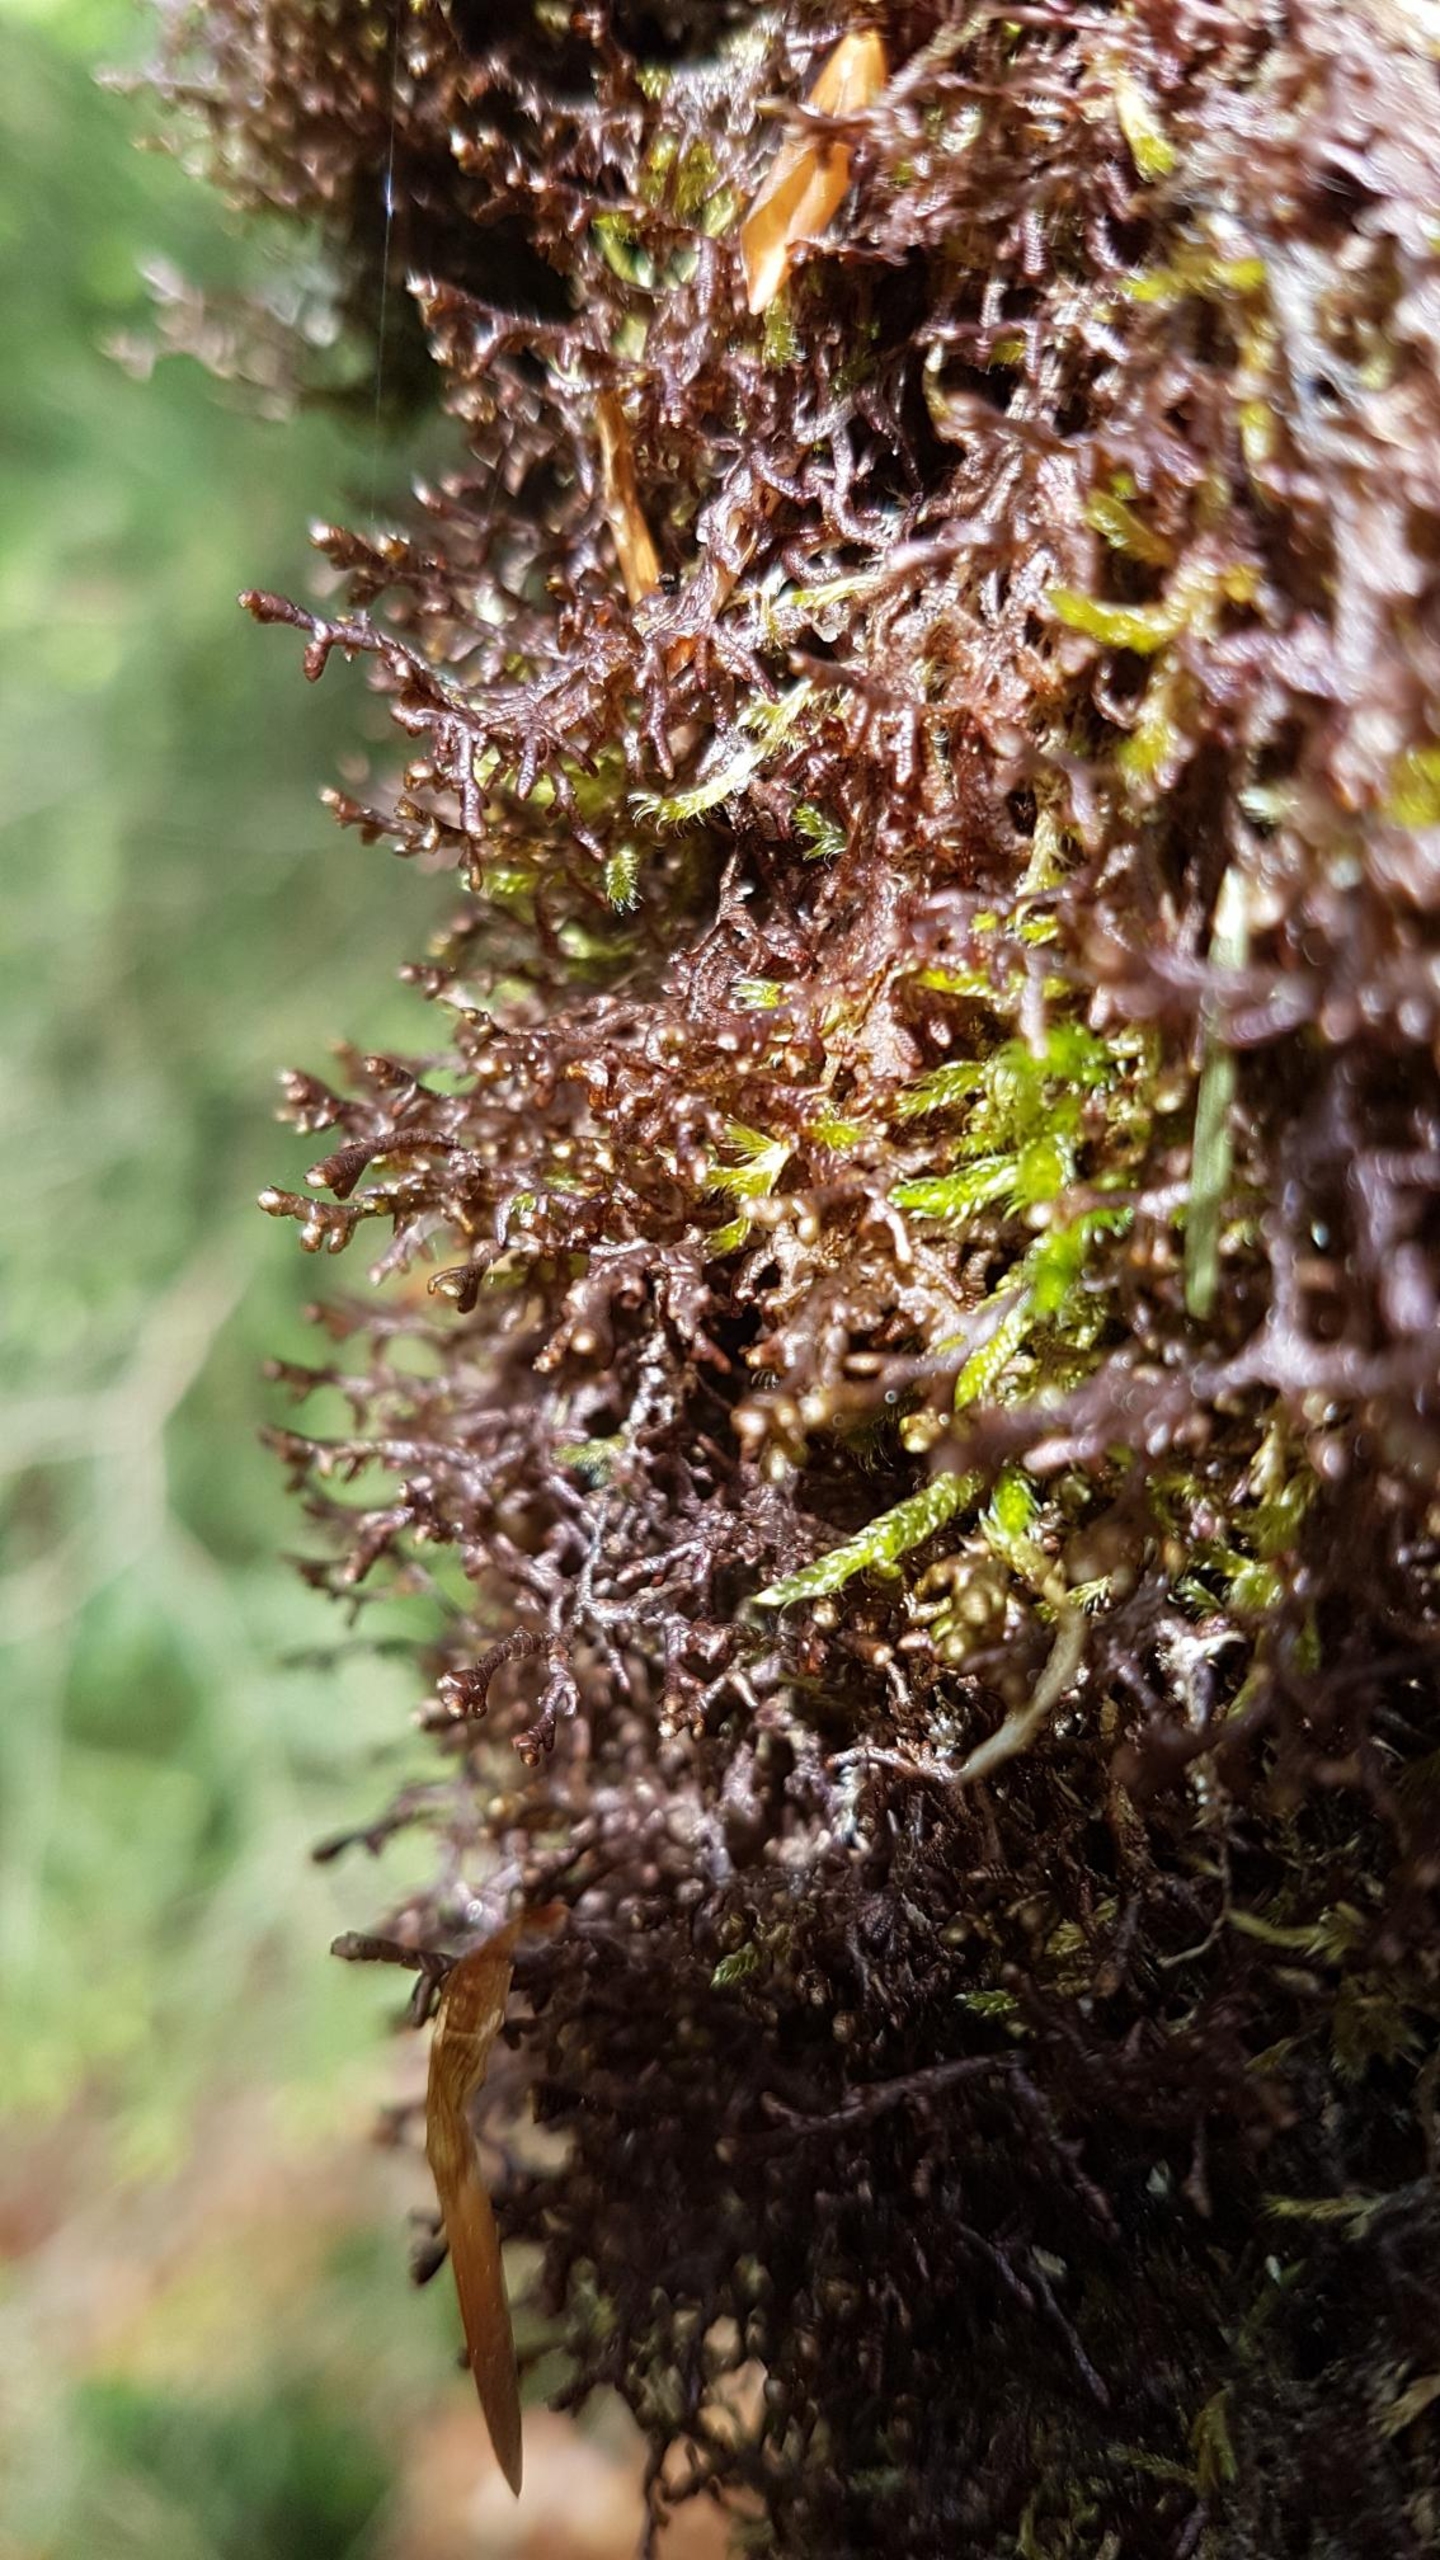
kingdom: Plantae
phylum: Marchantiophyta
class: Jungermanniopsida
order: Porellales
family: Frullaniaceae
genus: Frullania
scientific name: Frullania tamarisci
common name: Glinsende bronzemos
